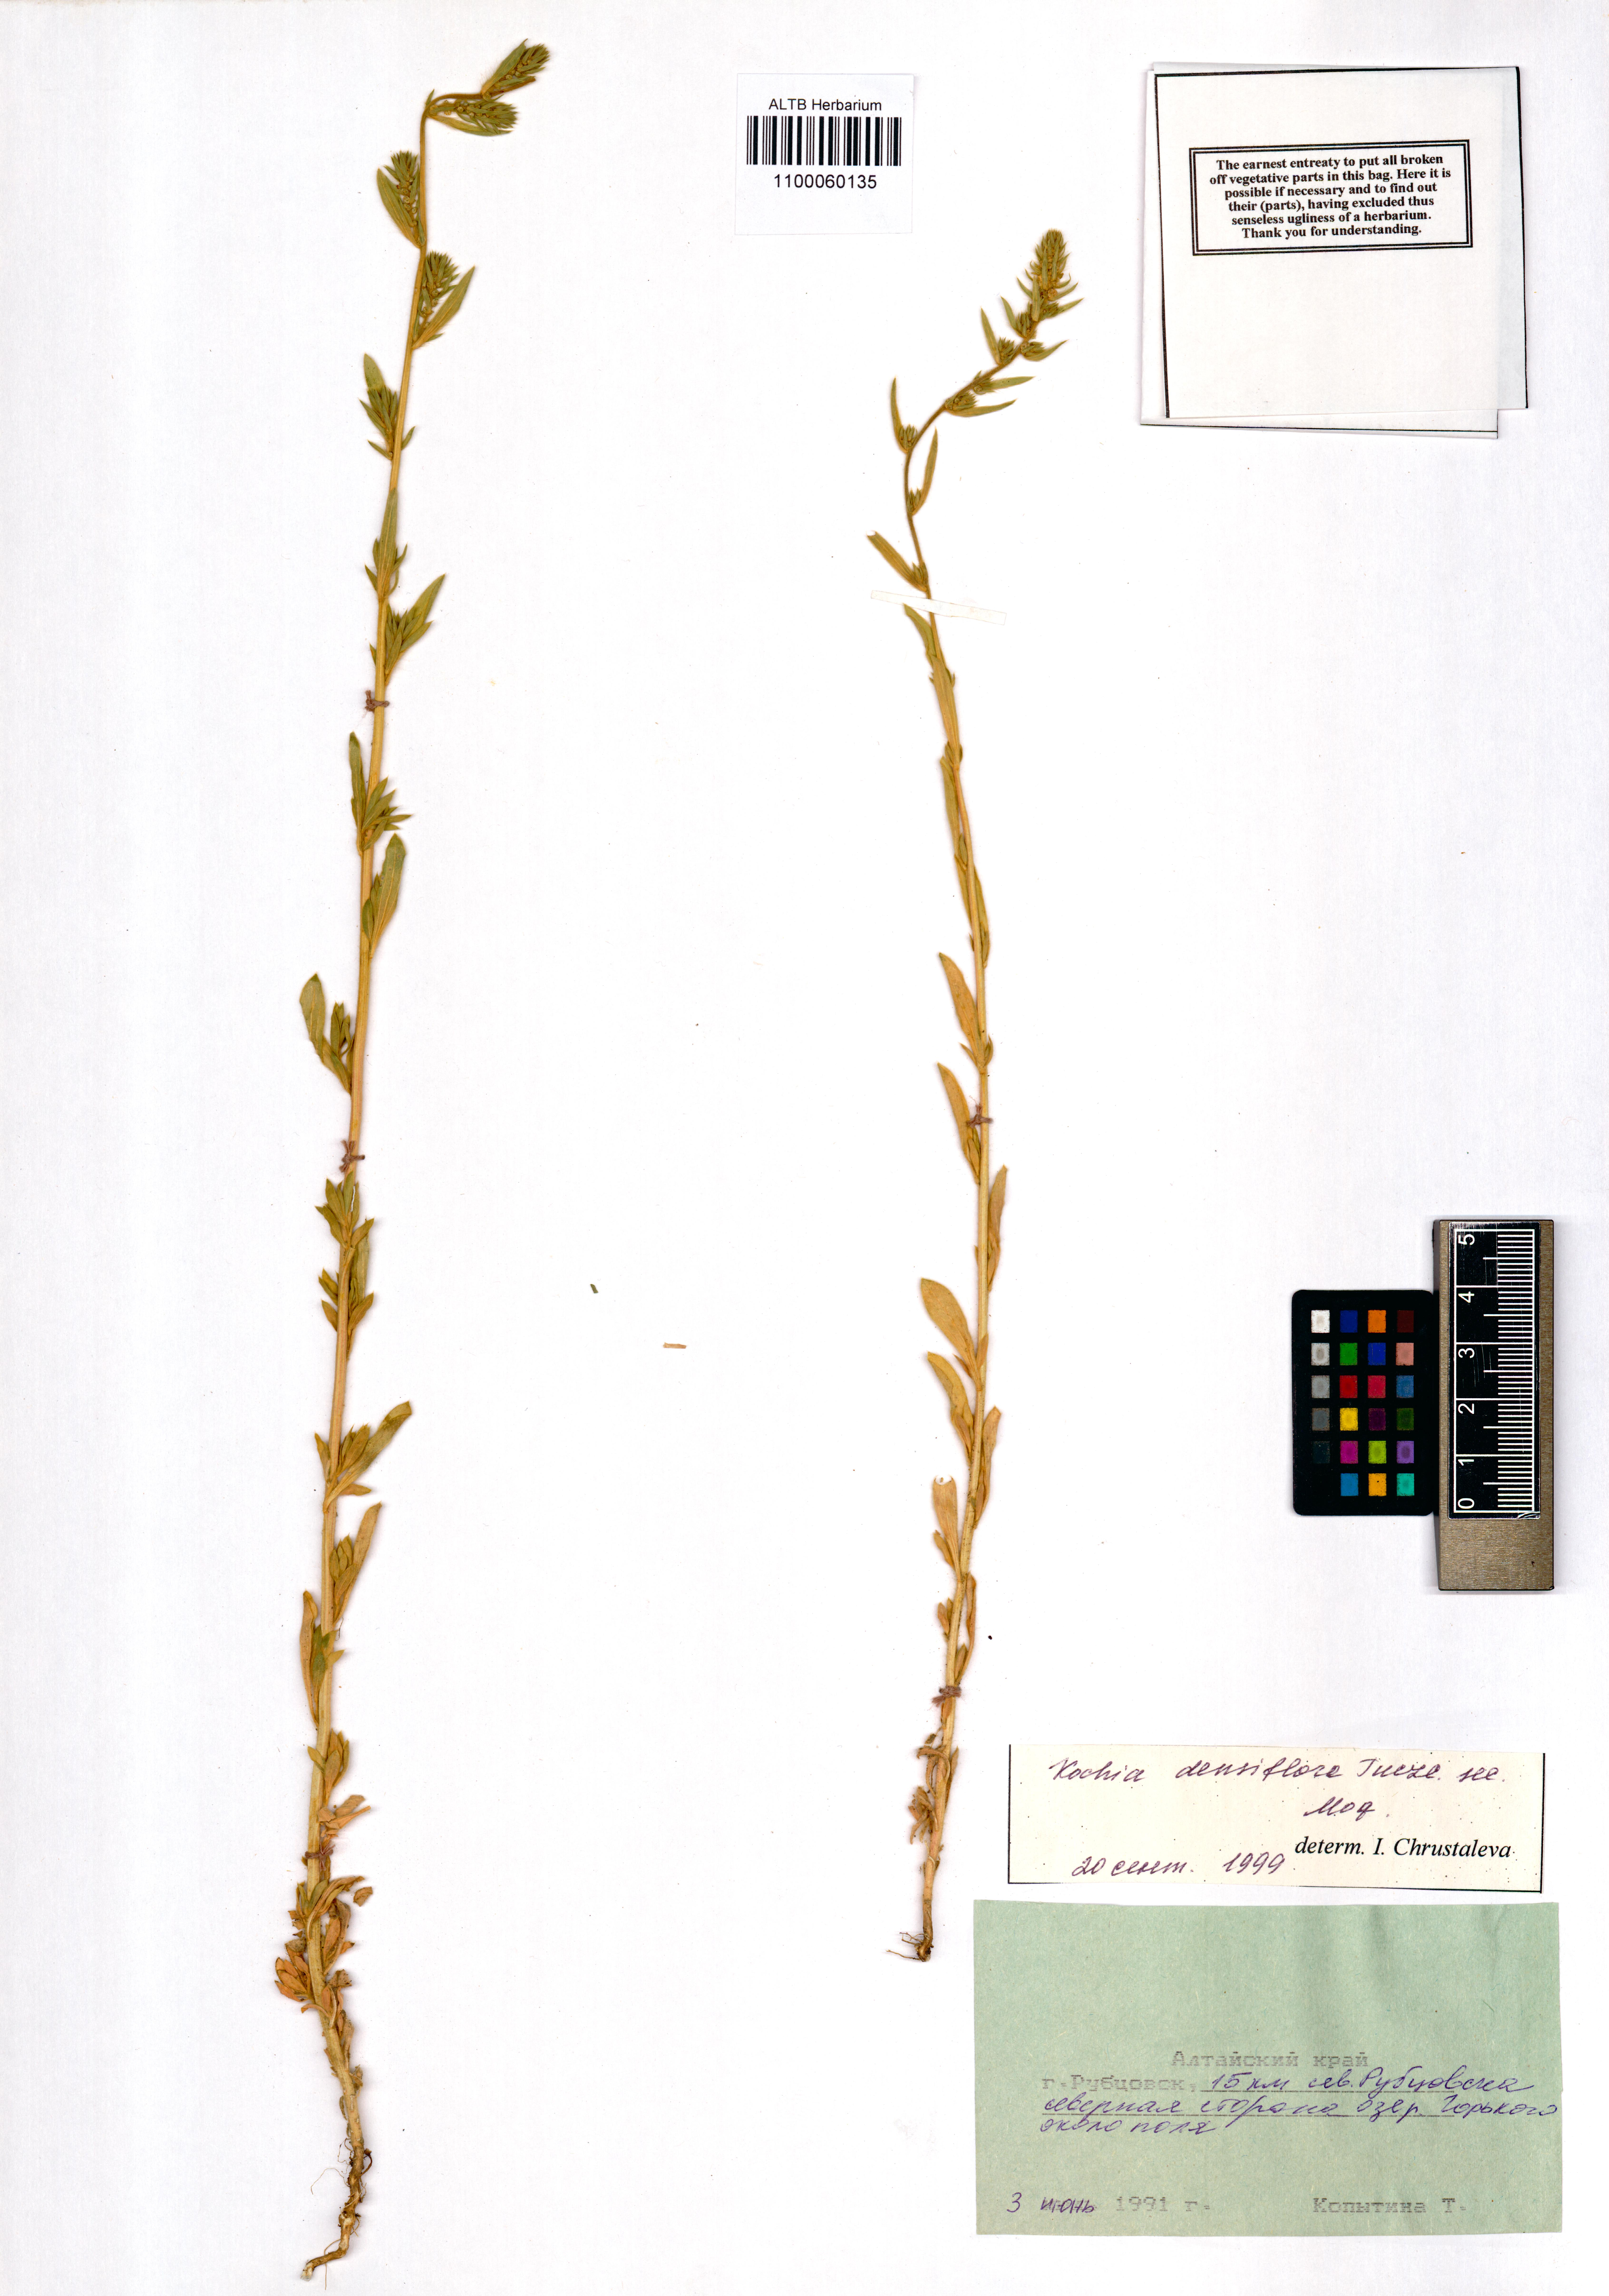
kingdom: Plantae
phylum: Tracheophyta
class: Magnoliopsida
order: Caryophyllales
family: Amaranthaceae
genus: Bassia
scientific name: Bassia scoparia
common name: Belvedere
